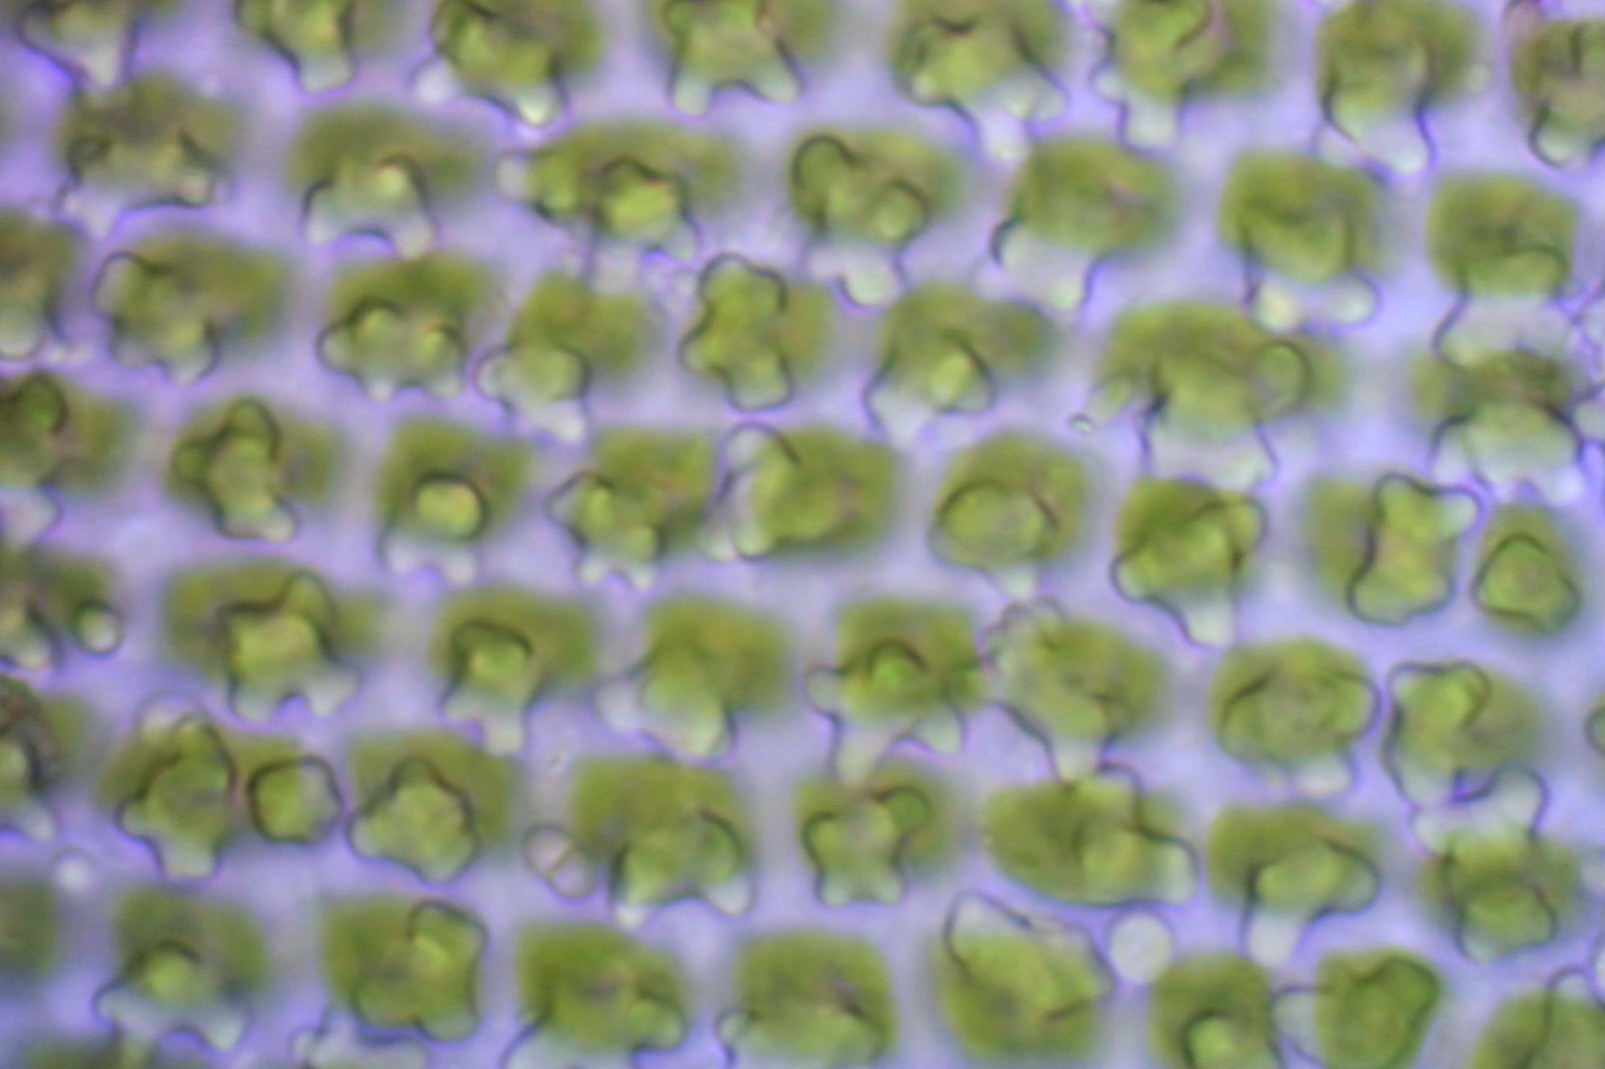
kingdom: Plantae
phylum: Bryophyta
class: Bryopsida
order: Hedwigiales
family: Hedwigiaceae
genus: Hedwigia
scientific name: Hedwigia stellata
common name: Stjernebladet hedwigia
